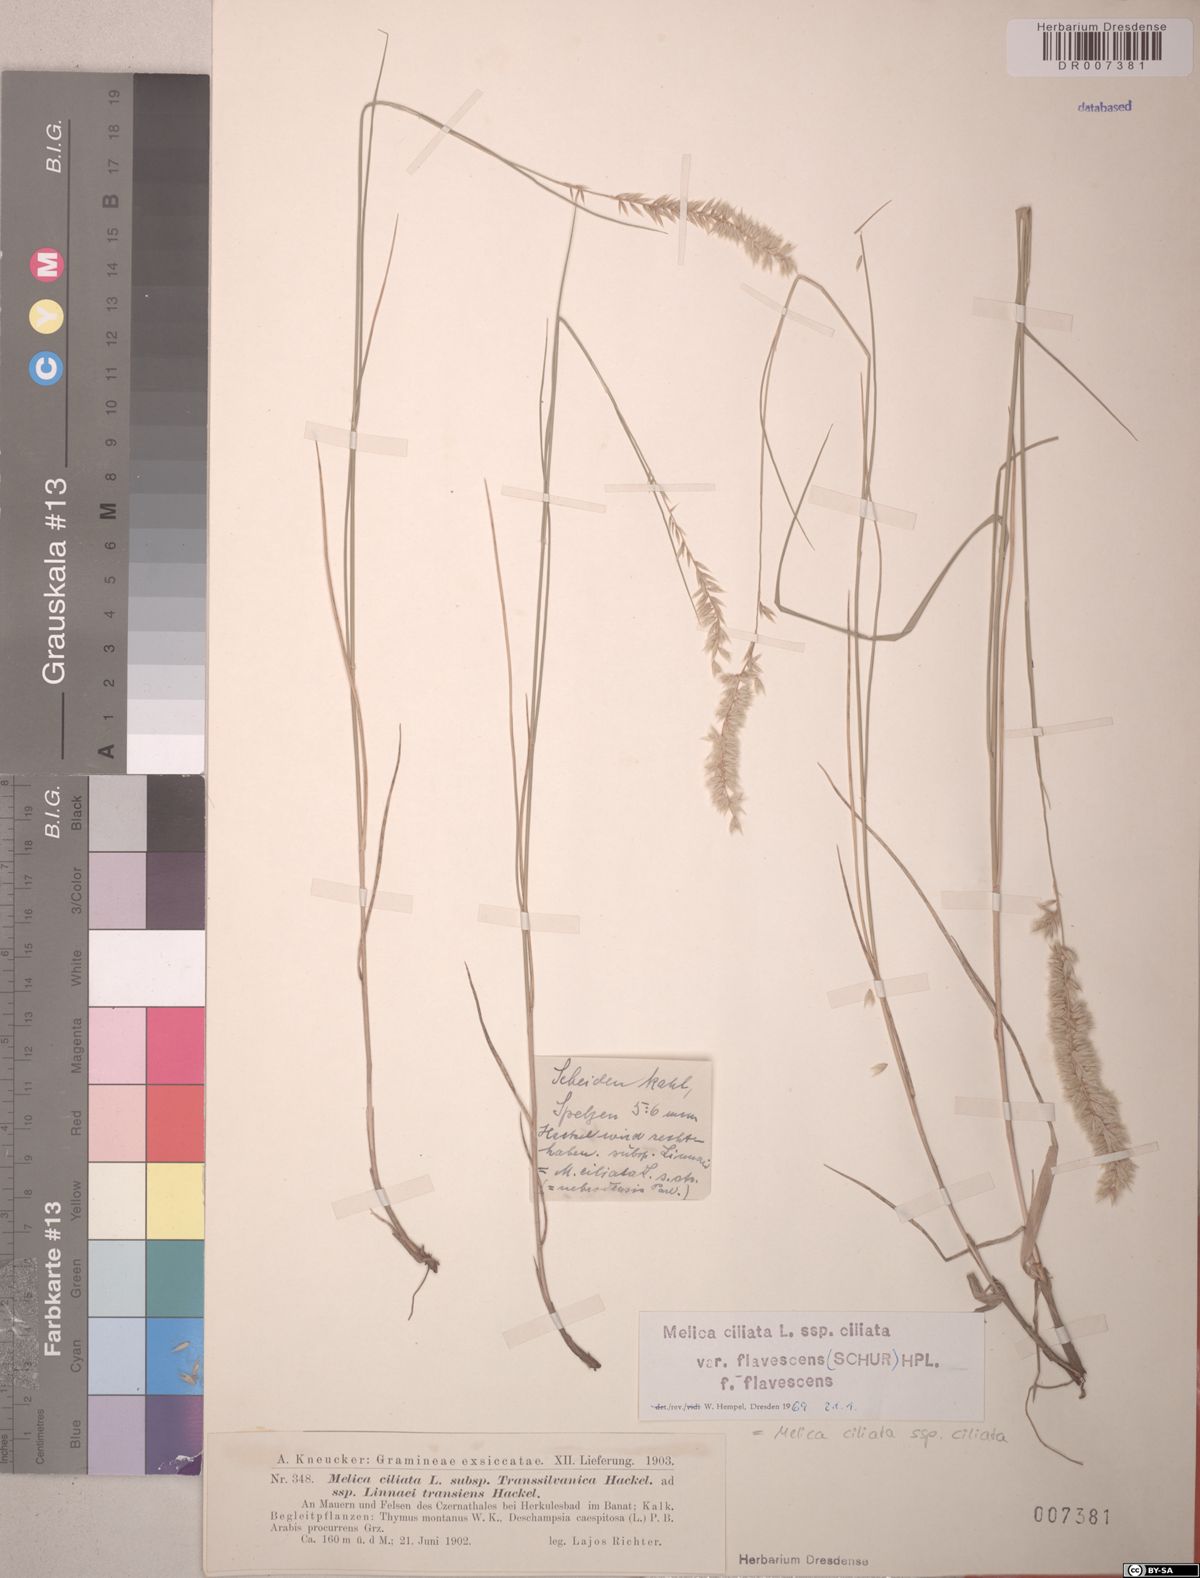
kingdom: Plantae
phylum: Tracheophyta
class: Liliopsida
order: Poales
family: Poaceae
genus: Melica
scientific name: Melica ciliata
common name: Hairy melicgrass
